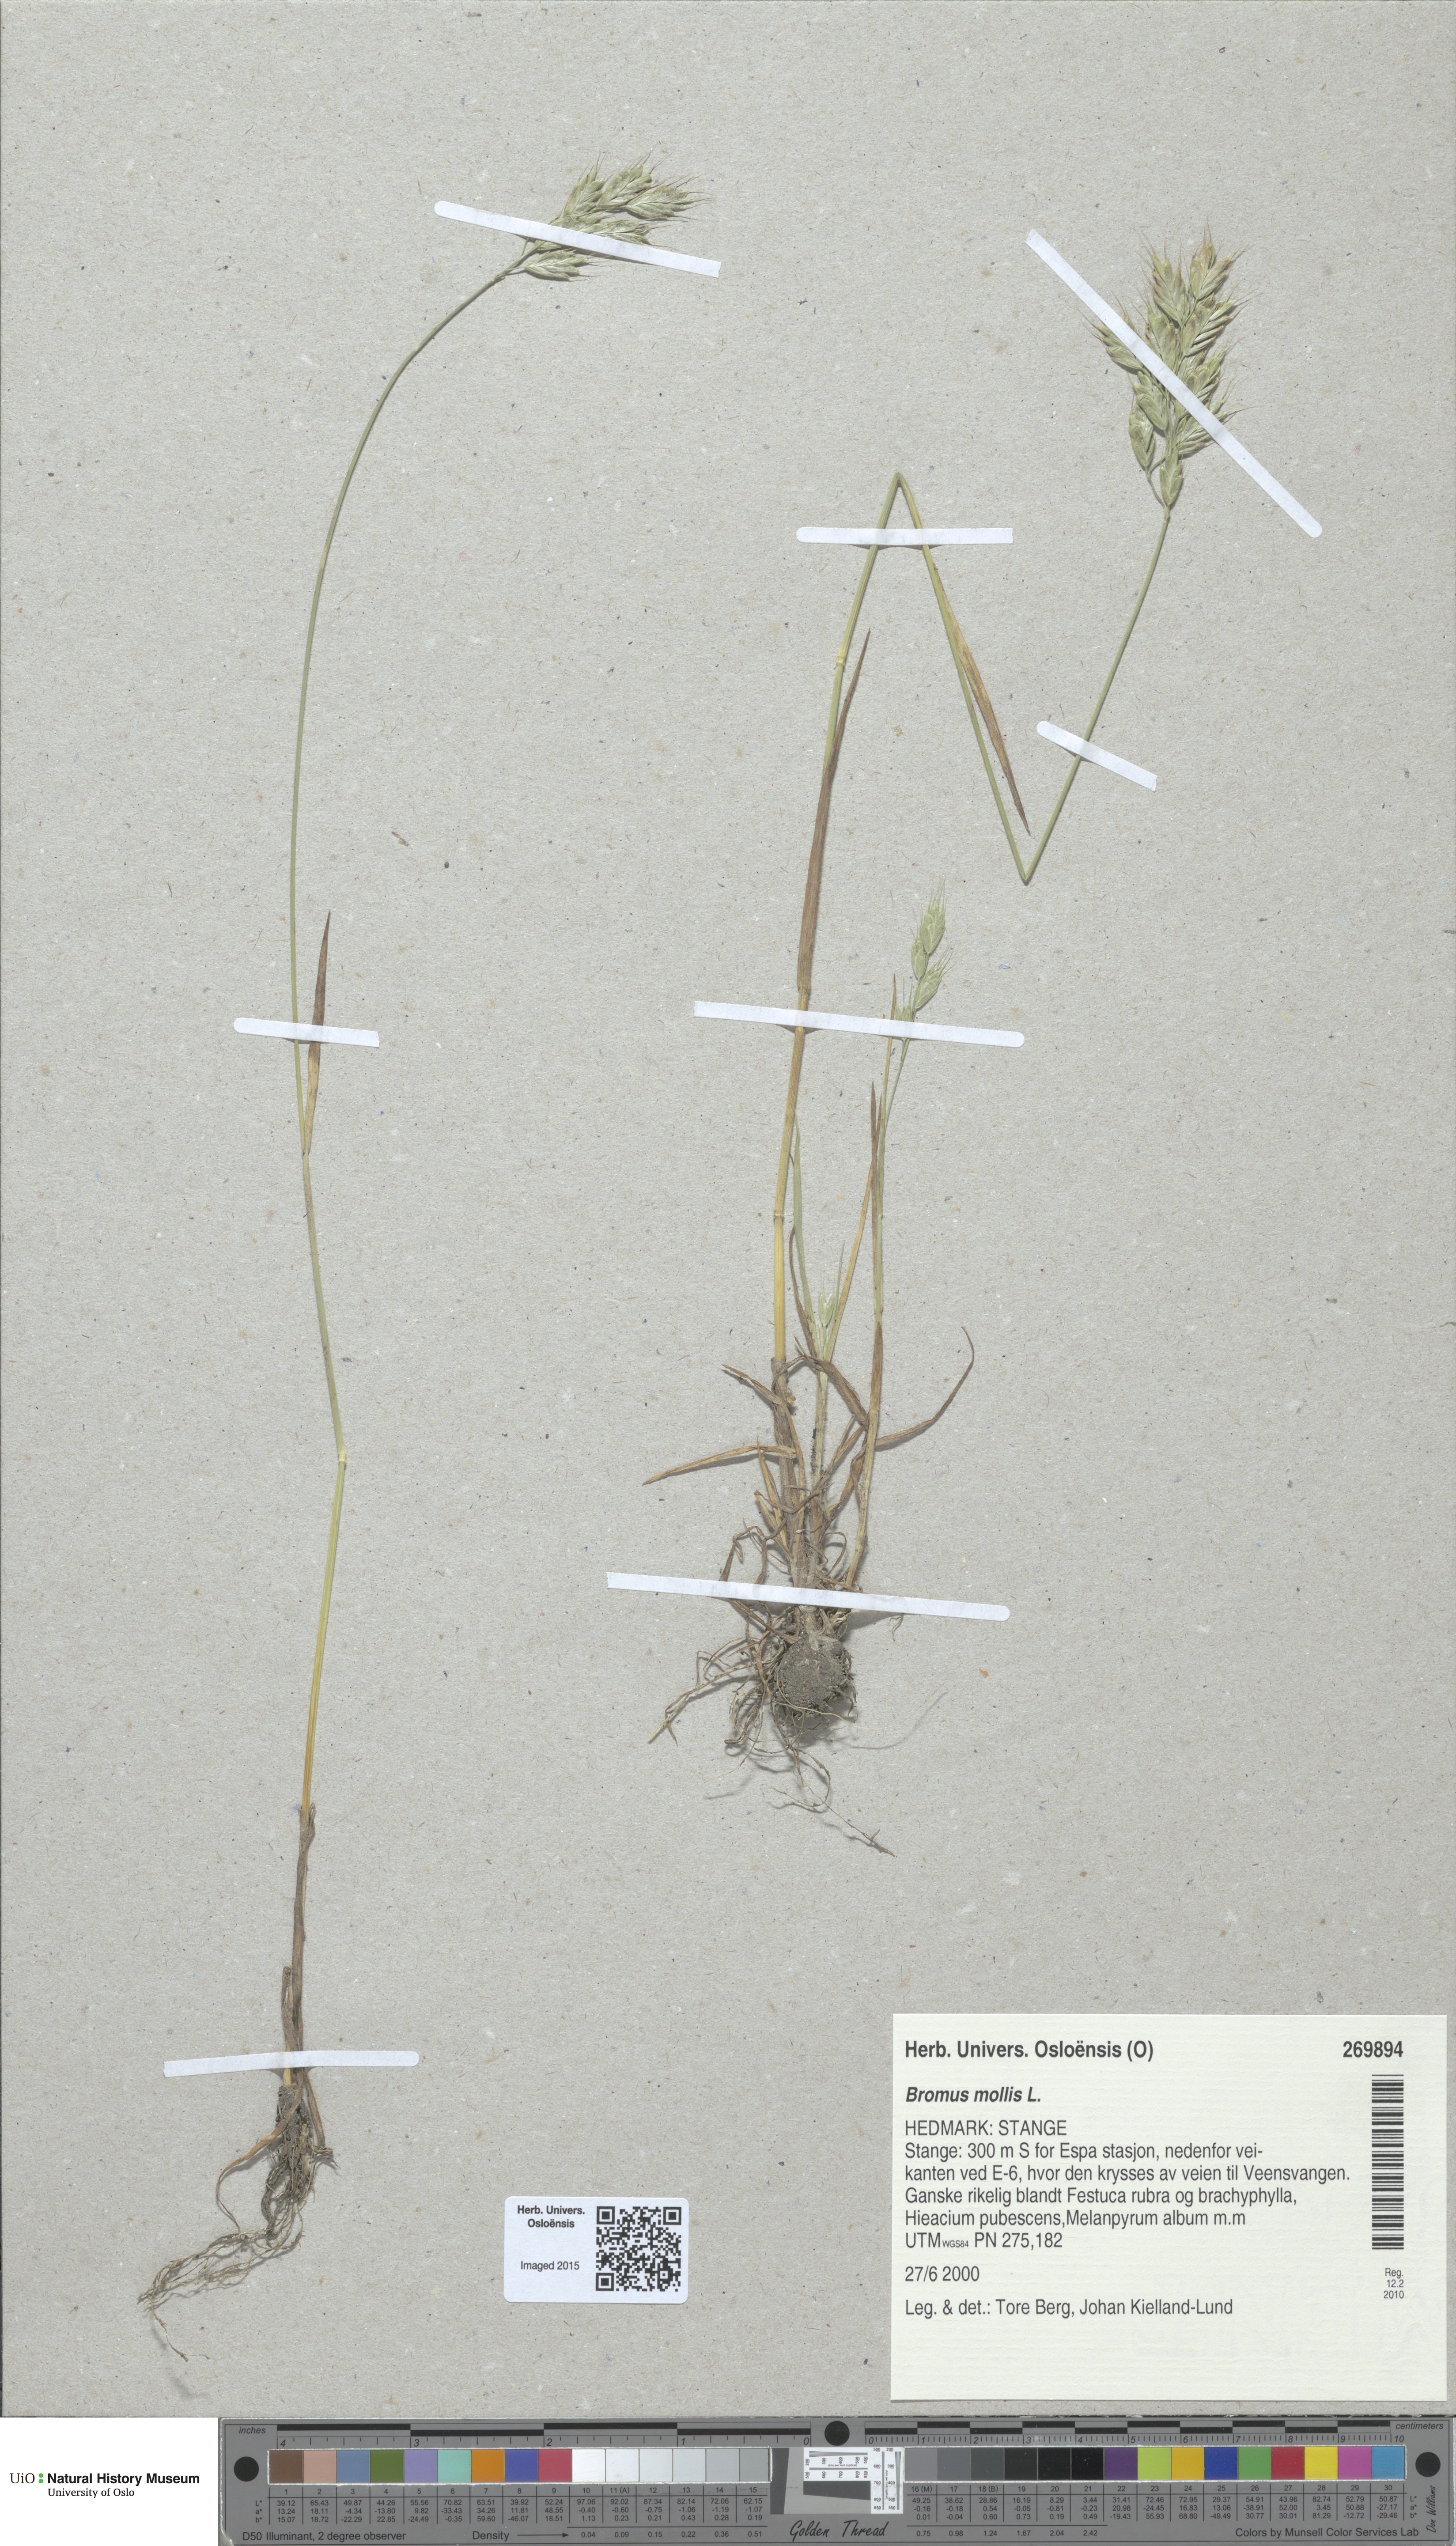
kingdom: Plantae
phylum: Tracheophyta
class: Liliopsida
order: Poales
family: Poaceae
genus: Bromus
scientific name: Bromus hordeaceus
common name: Soft brome
